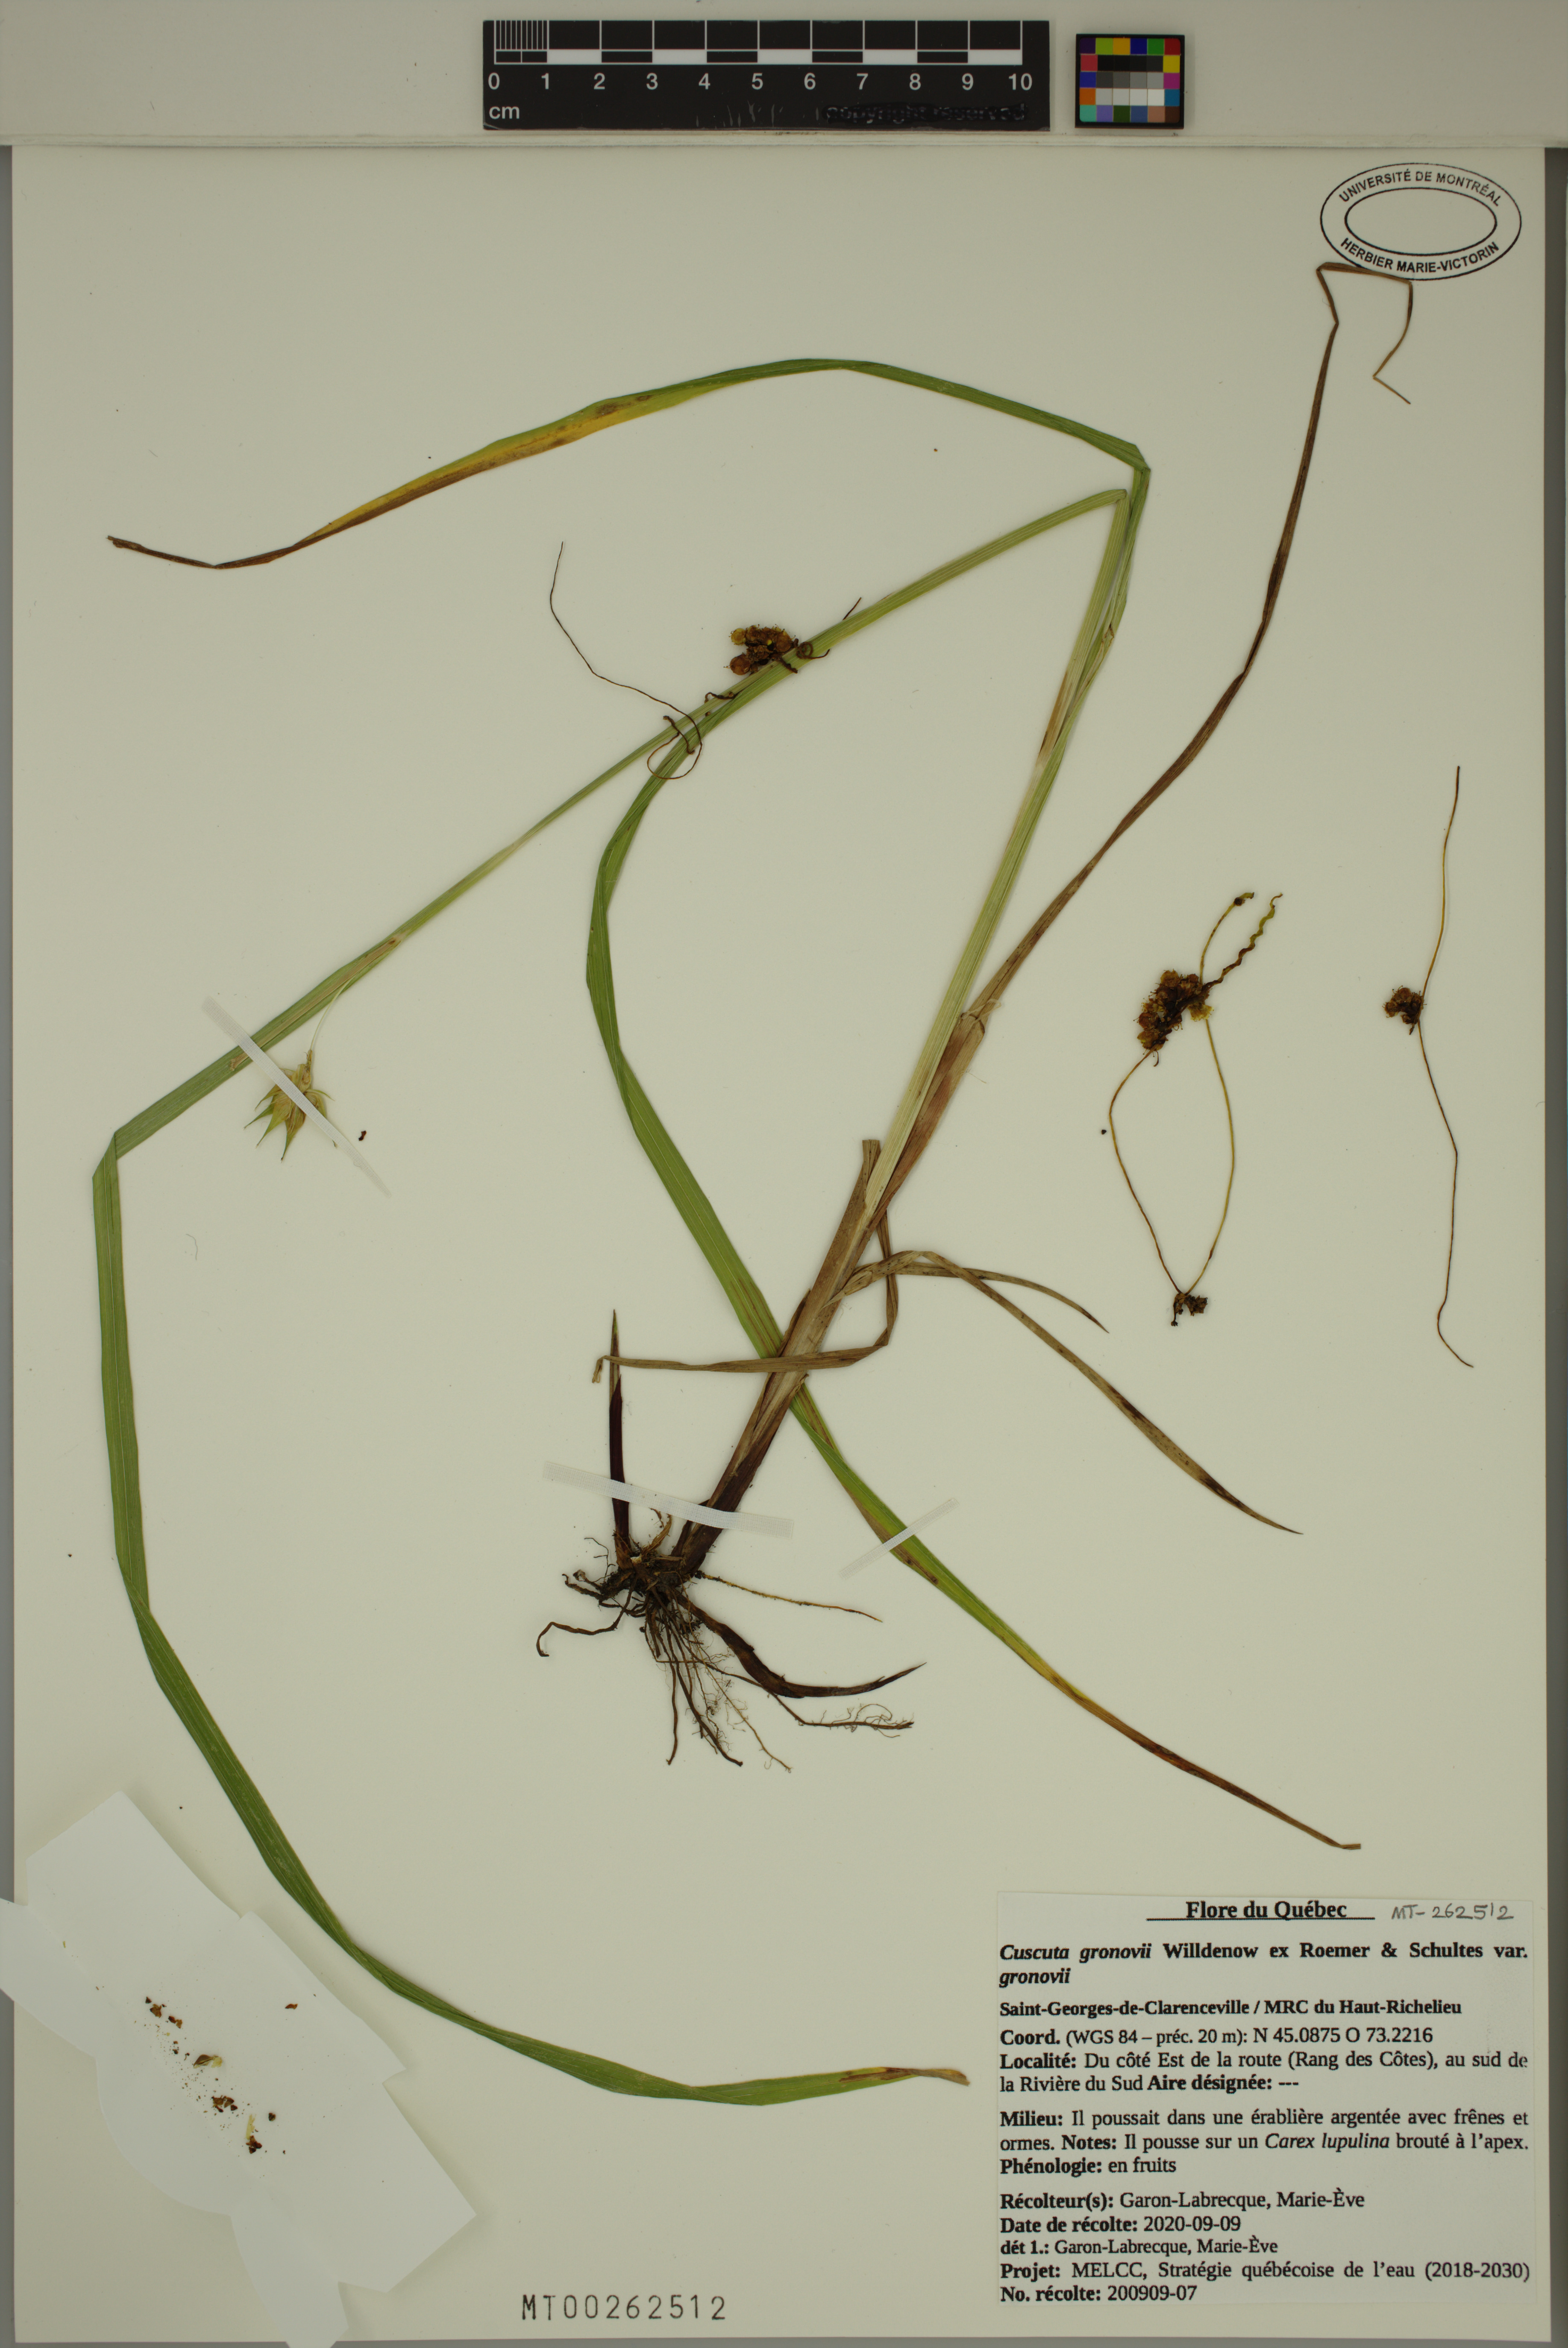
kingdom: Plantae
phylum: Tracheophyta
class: Magnoliopsida
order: Solanales
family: Convolvulaceae
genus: Cuscuta
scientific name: Cuscuta gronovii
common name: Common dodder
